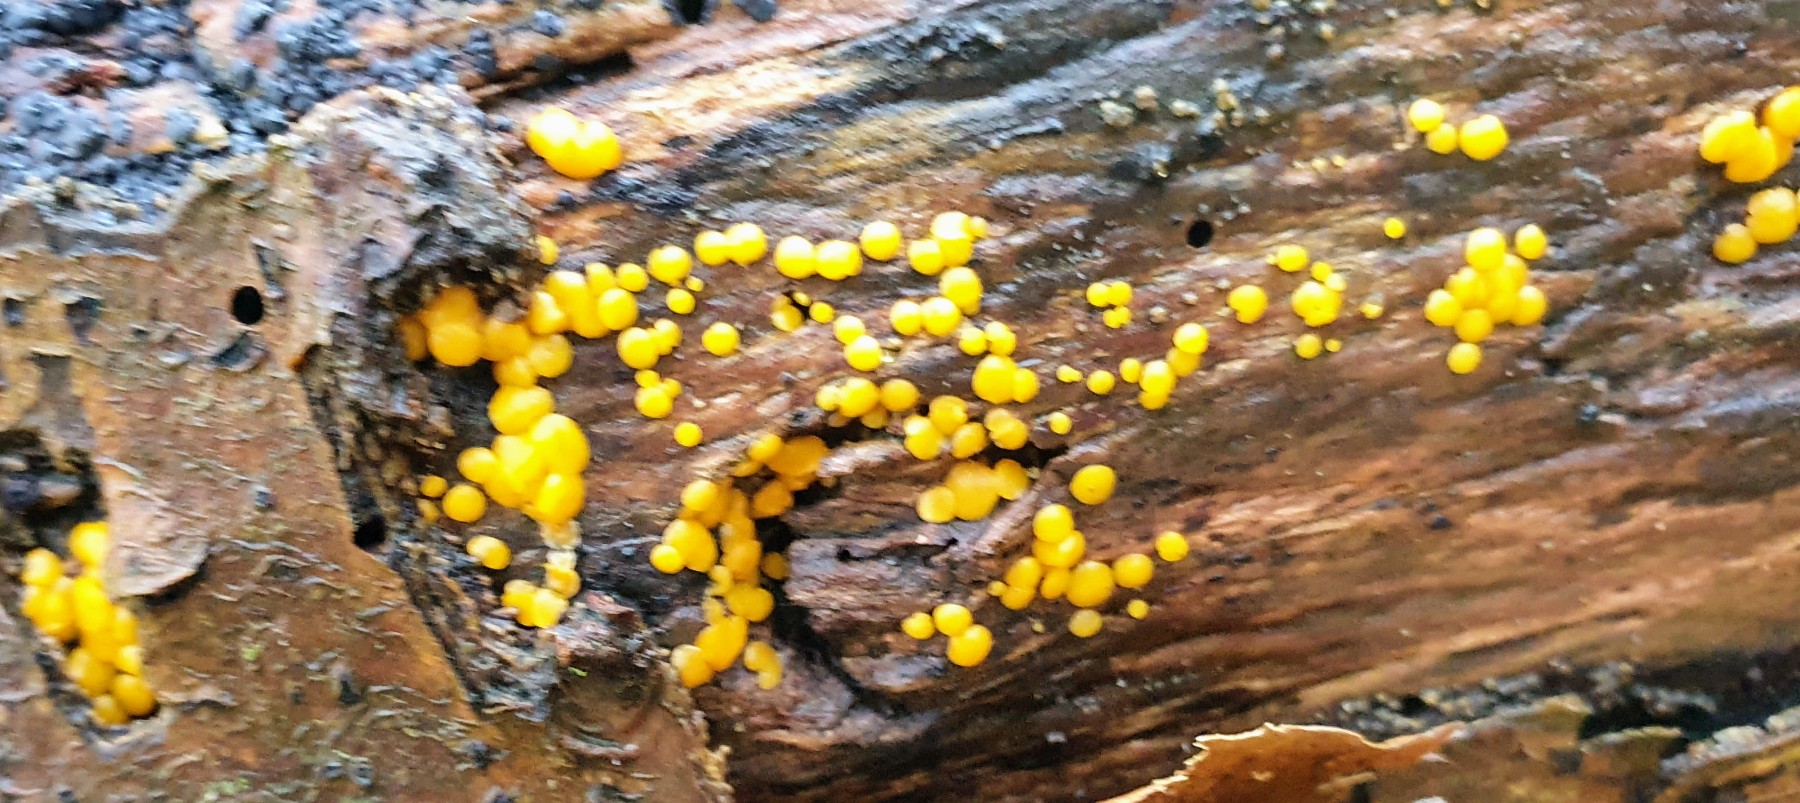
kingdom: Fungi
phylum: Ascomycota
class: Leotiomycetes
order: Helotiales
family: Pezizellaceae
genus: Calycina
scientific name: Calycina citrina
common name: almindelig gulskive
